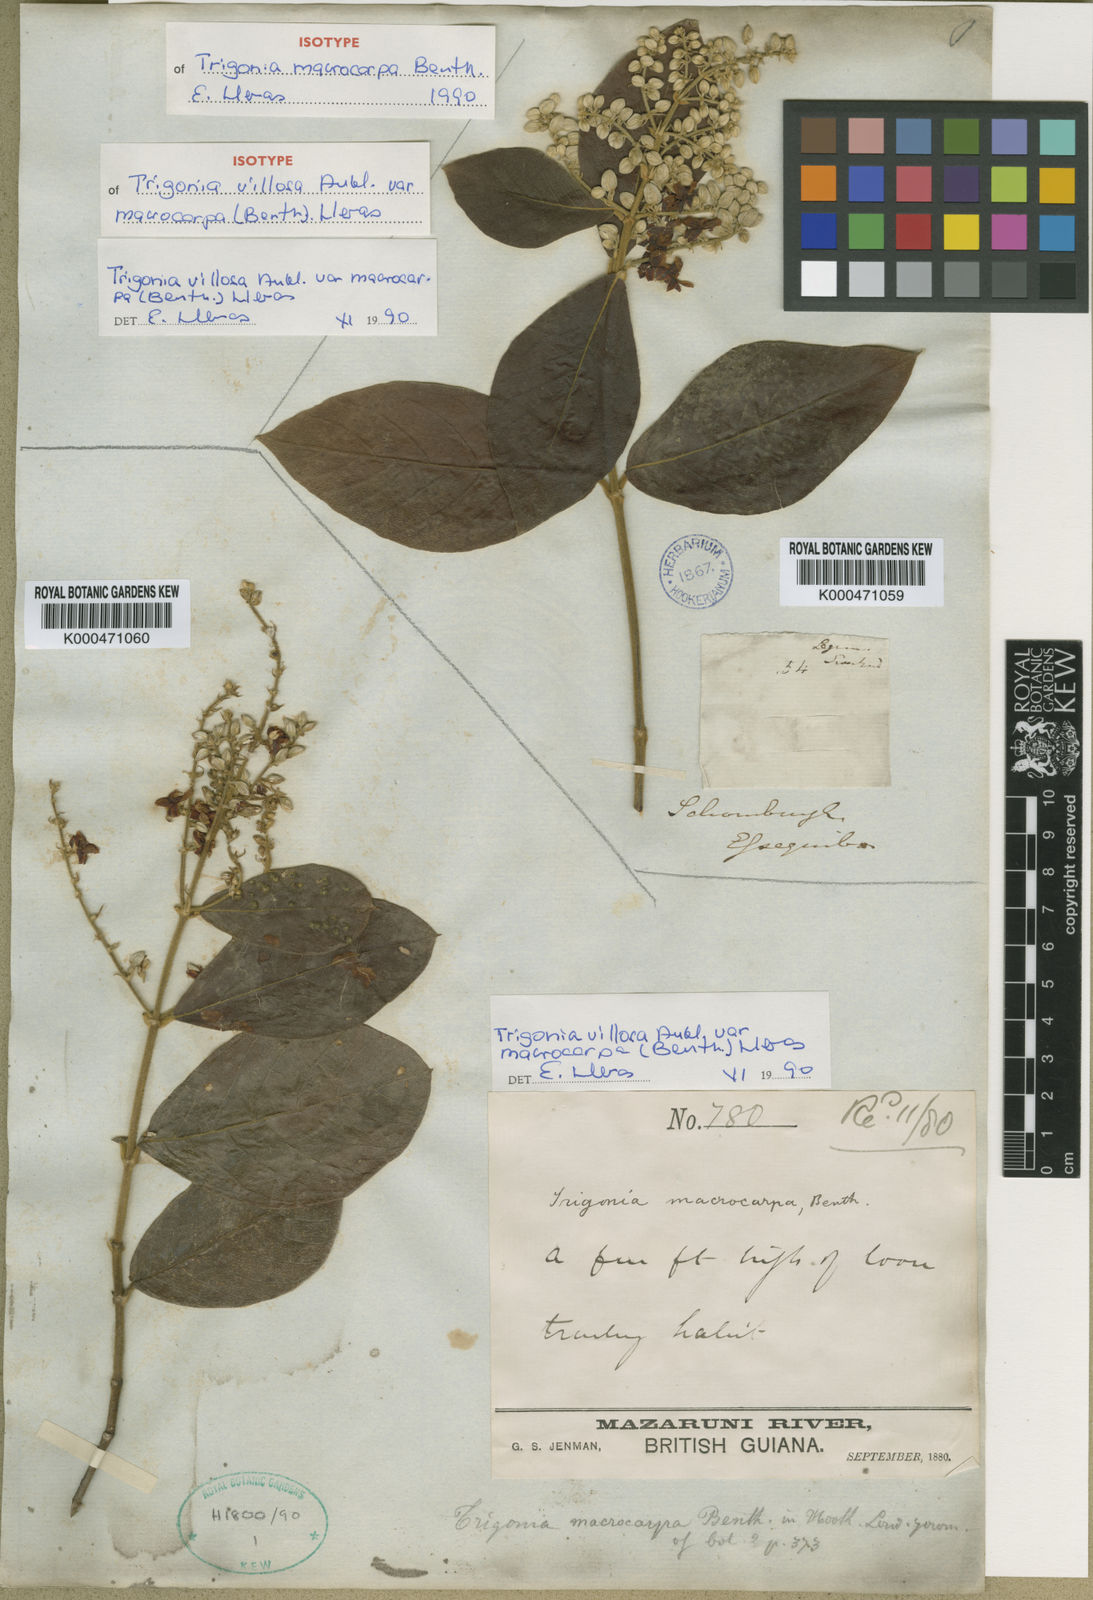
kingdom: Plantae
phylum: Tracheophyta
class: Magnoliopsida
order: Malpighiales
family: Trigoniaceae
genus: Trigonia
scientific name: Trigonia villosa
